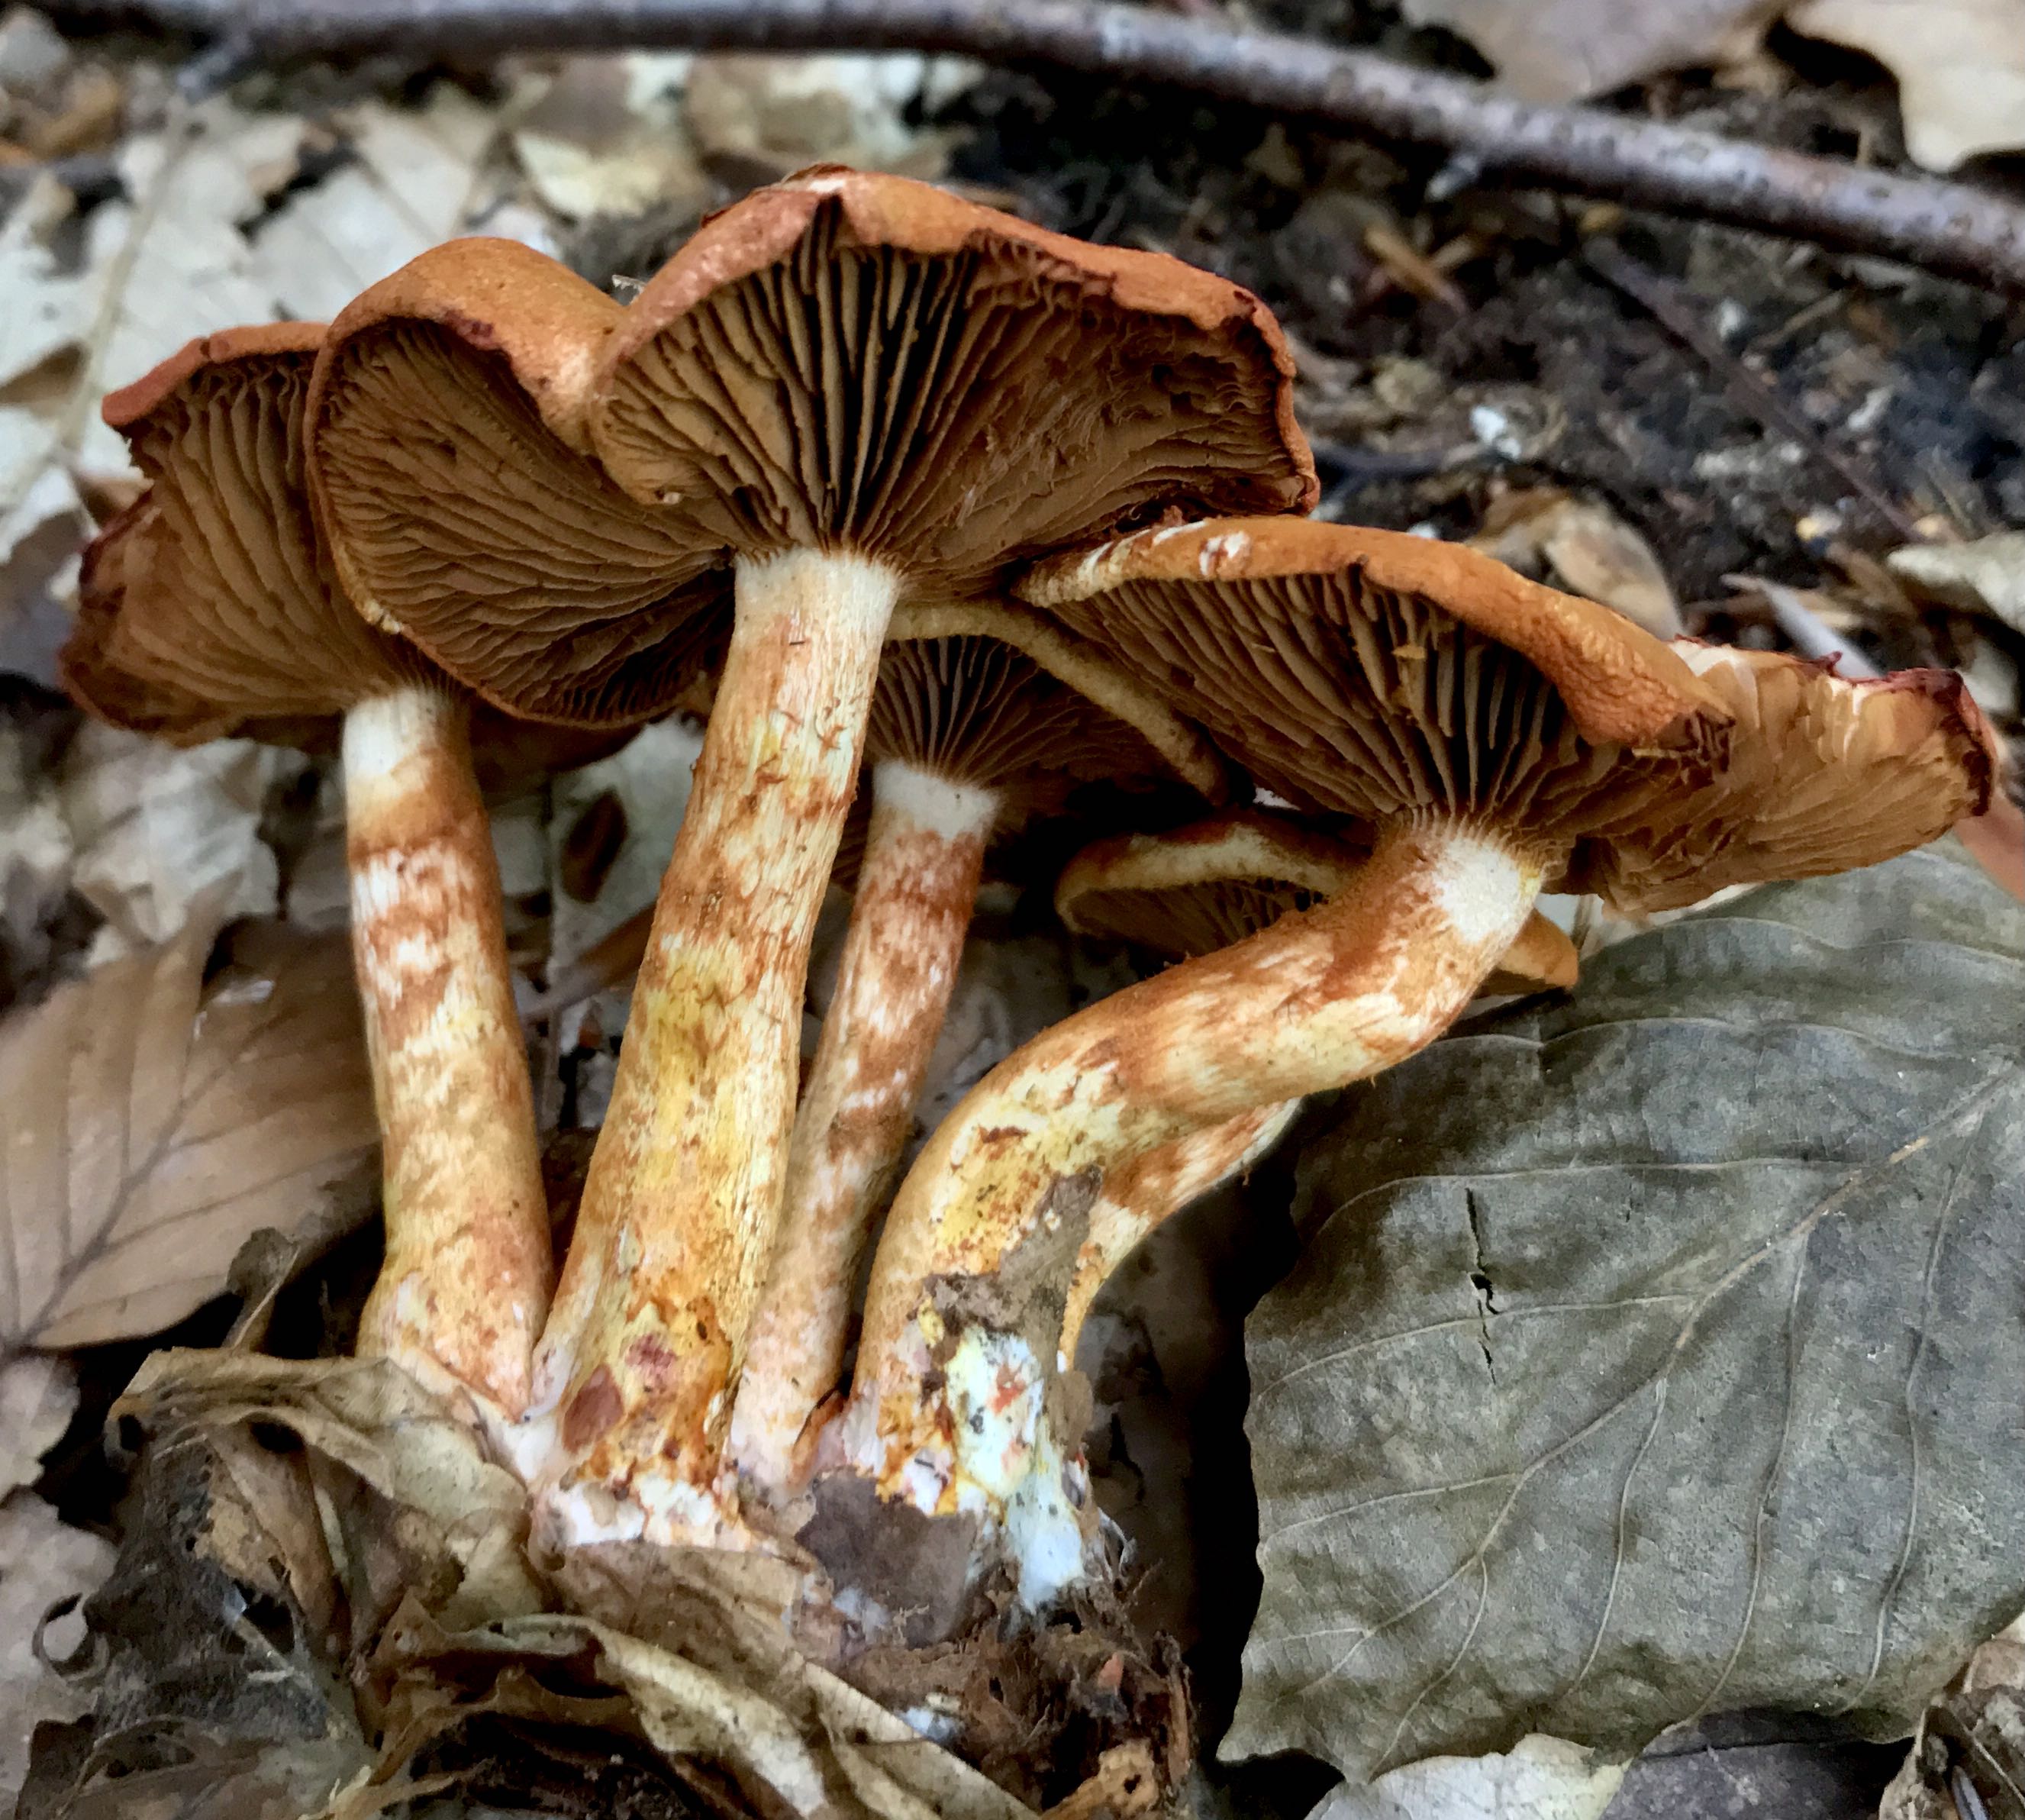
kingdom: Fungi
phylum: Basidiomycota
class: Agaricomycetes
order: Agaricales
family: Cortinariaceae
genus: Cortinarius
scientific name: Cortinarius bolaris
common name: cinnoberskællet slørhat
